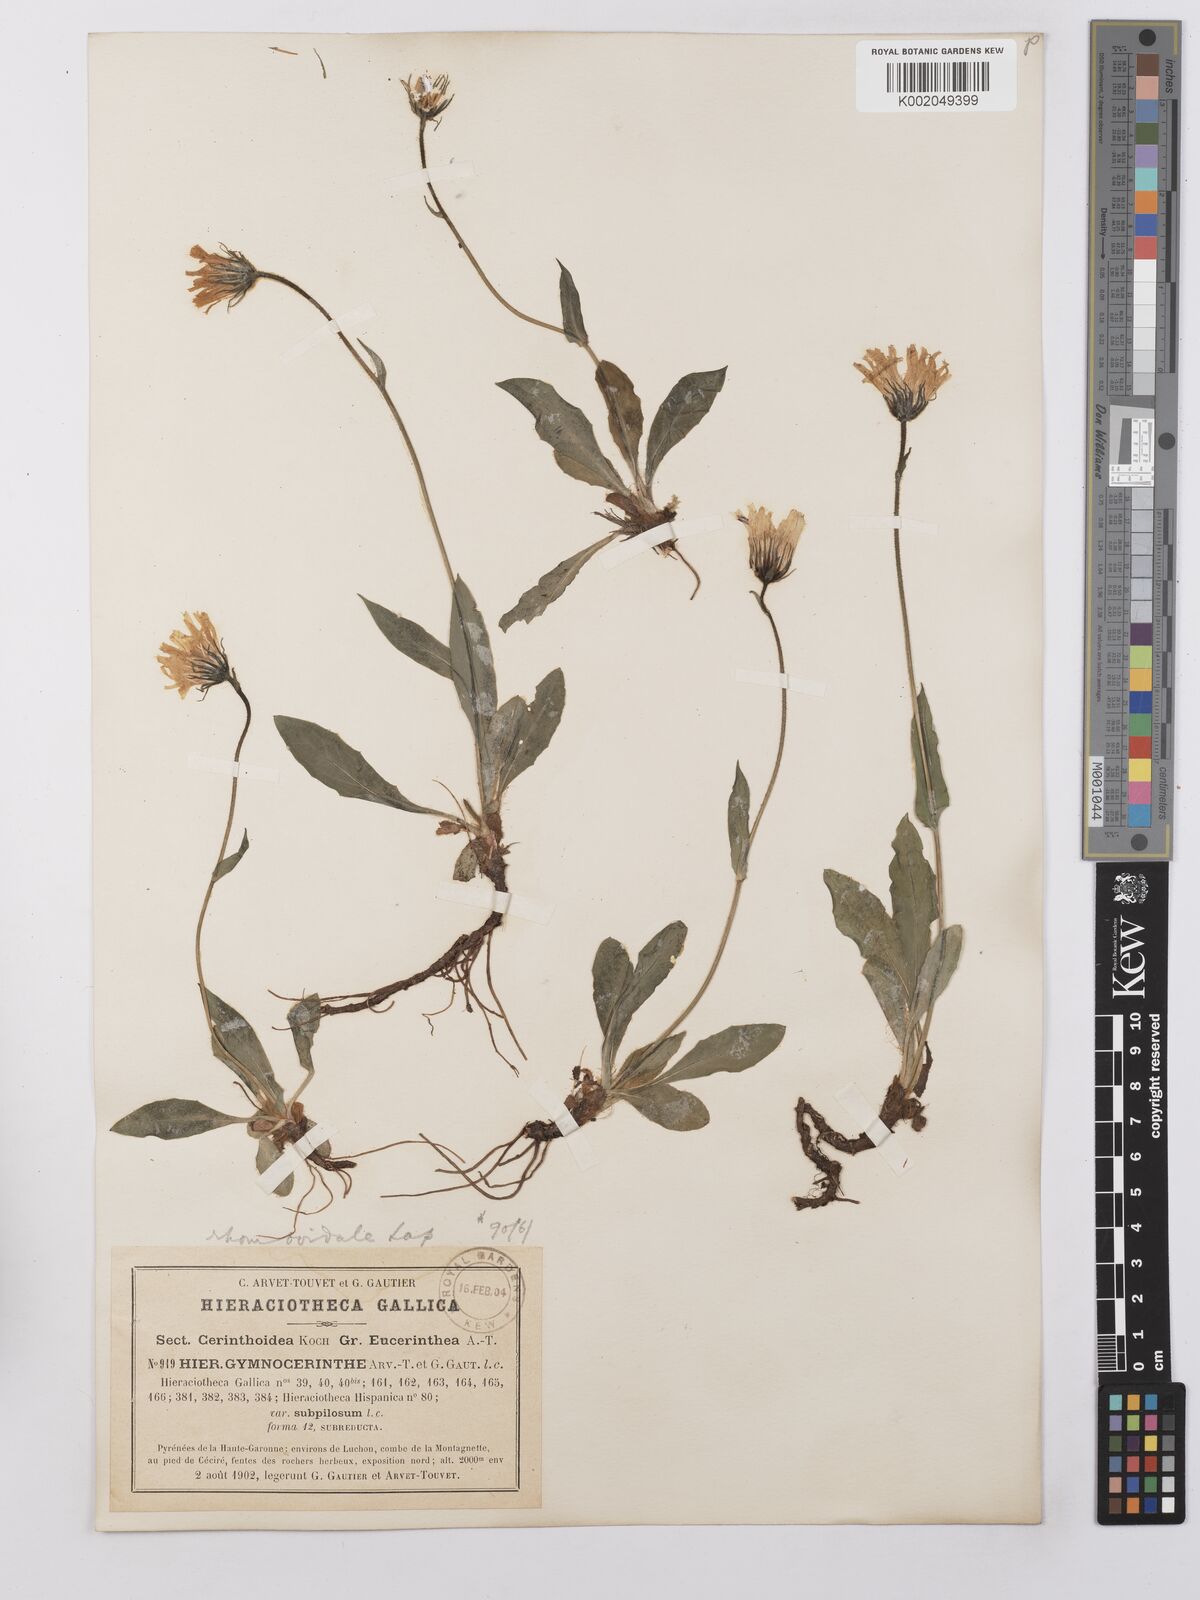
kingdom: Plantae
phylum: Tracheophyta
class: Magnoliopsida
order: Asterales
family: Asteraceae
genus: Hieracium
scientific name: Hieracium cerinthoides
